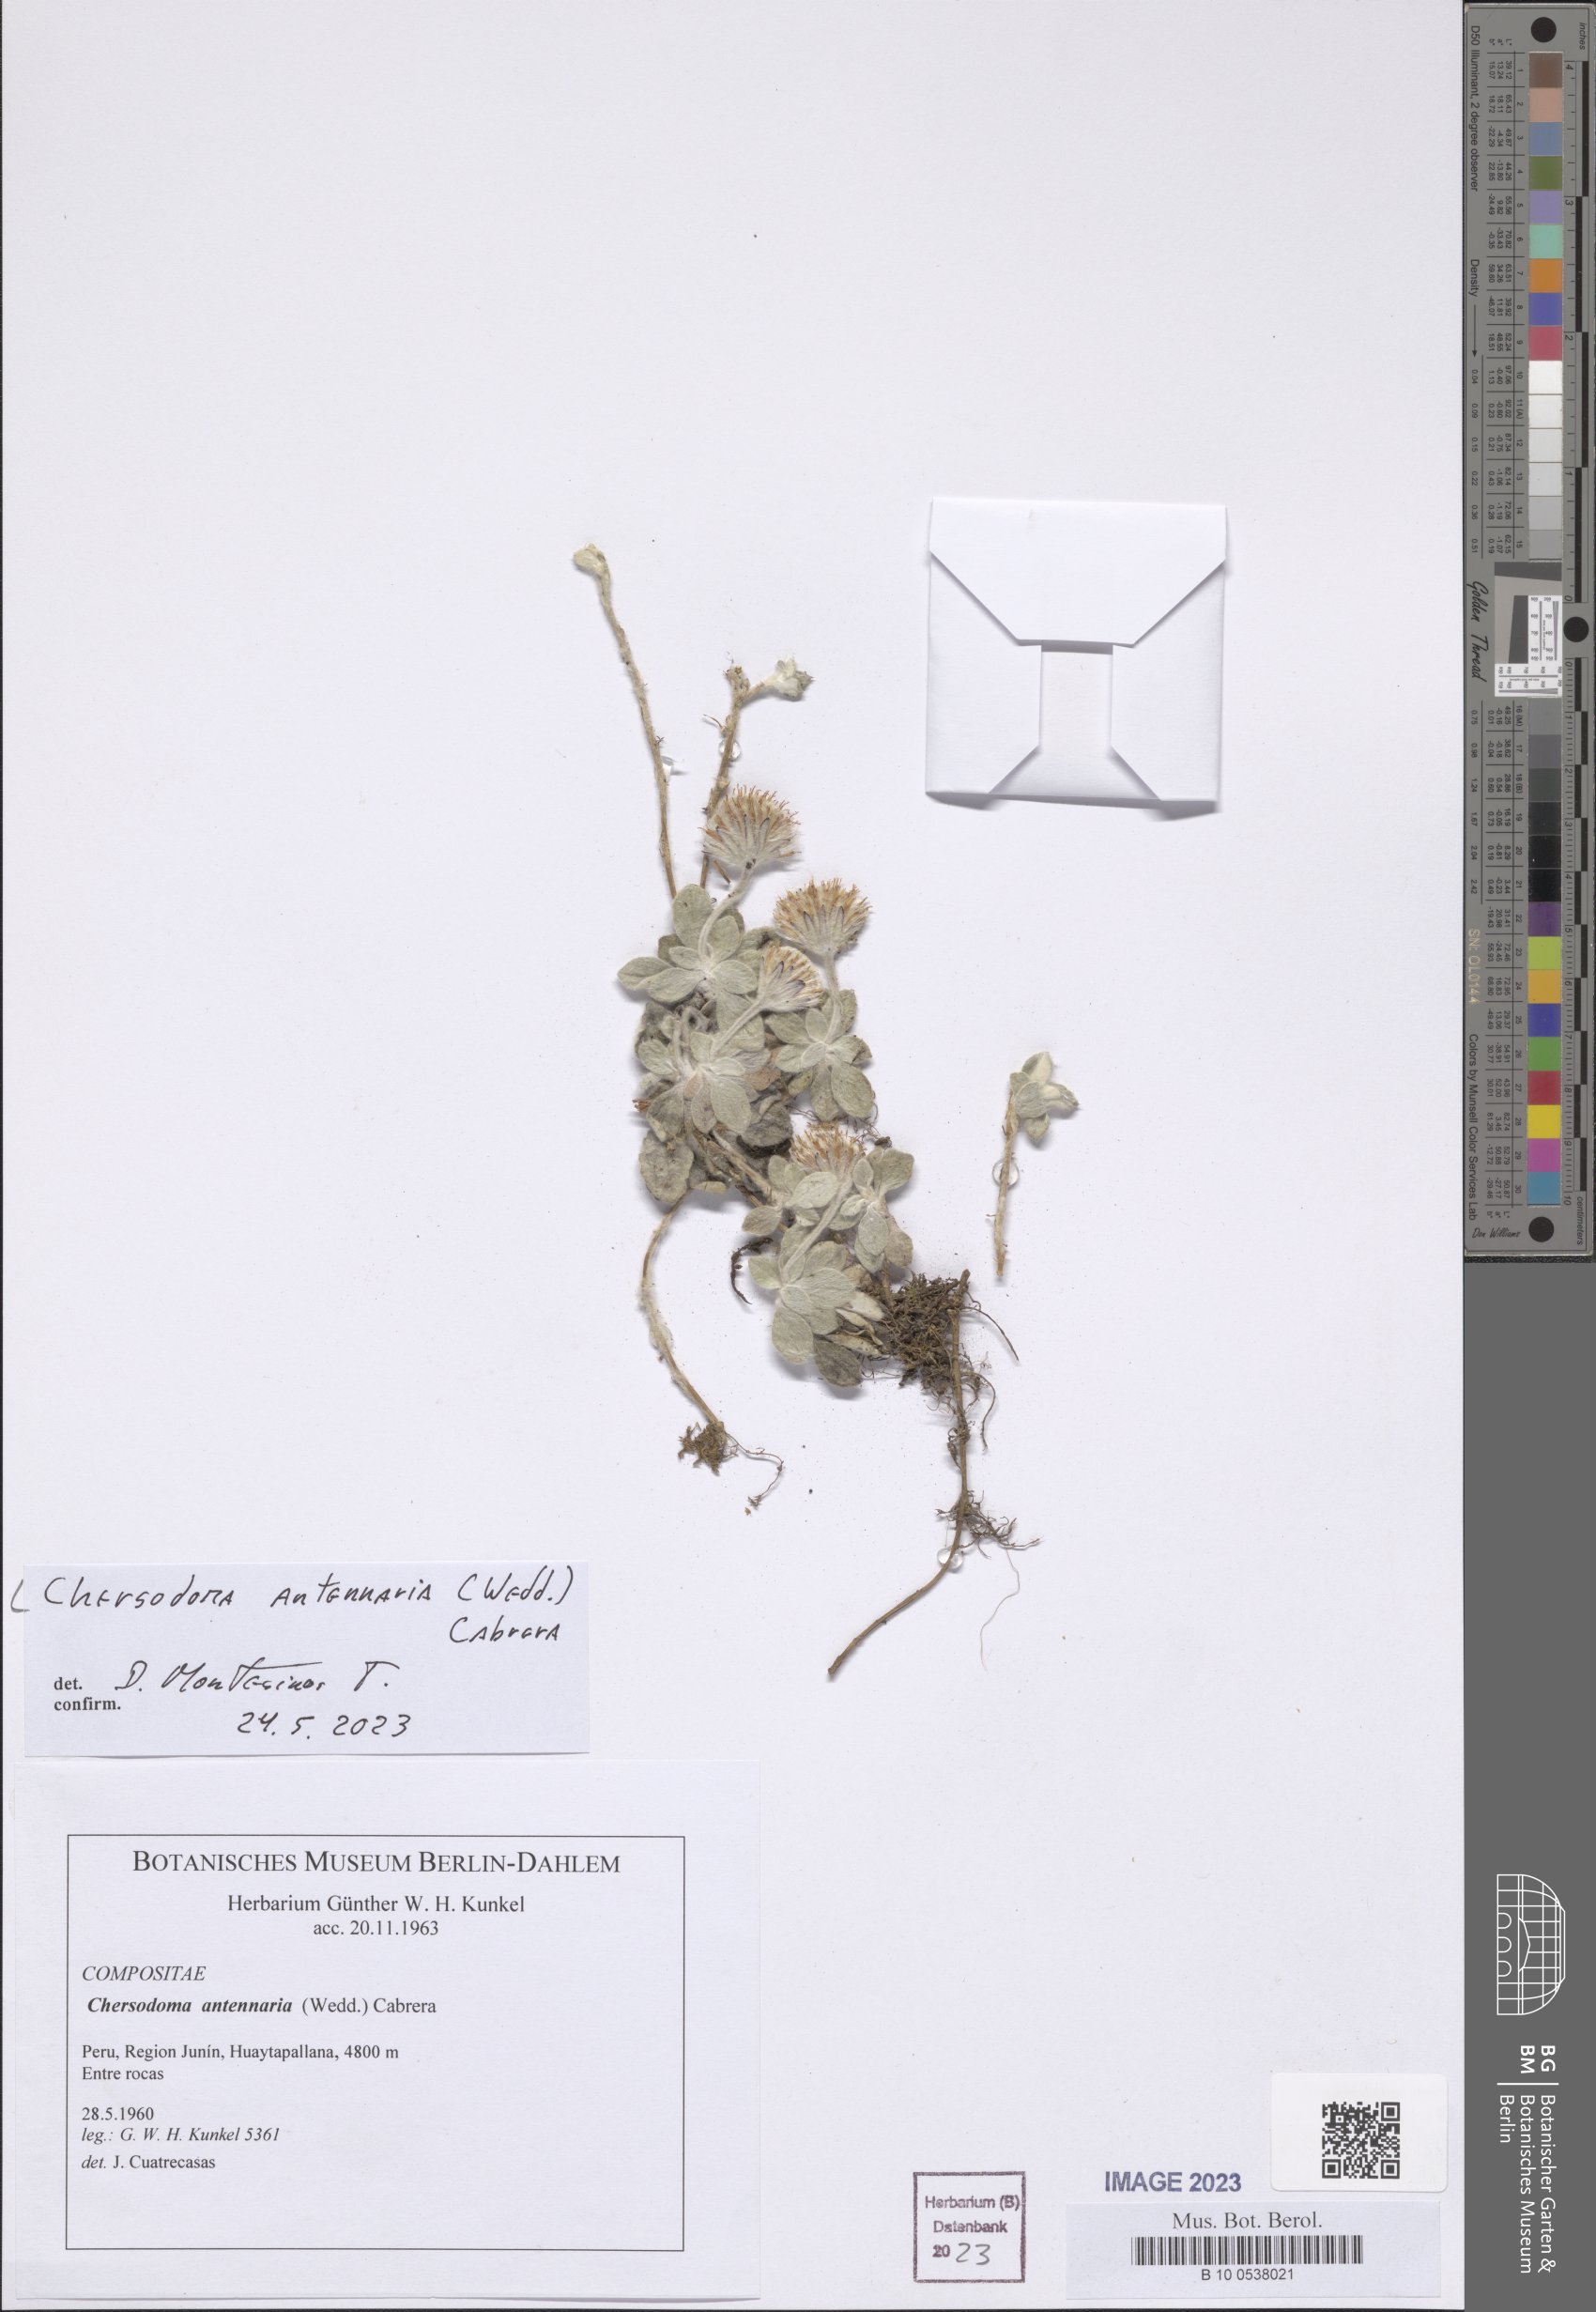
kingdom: Plantae
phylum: Tracheophyta
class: Magnoliopsida
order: Asterales
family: Asteraceae
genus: Chersodoma
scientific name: Chersodoma antennaria
